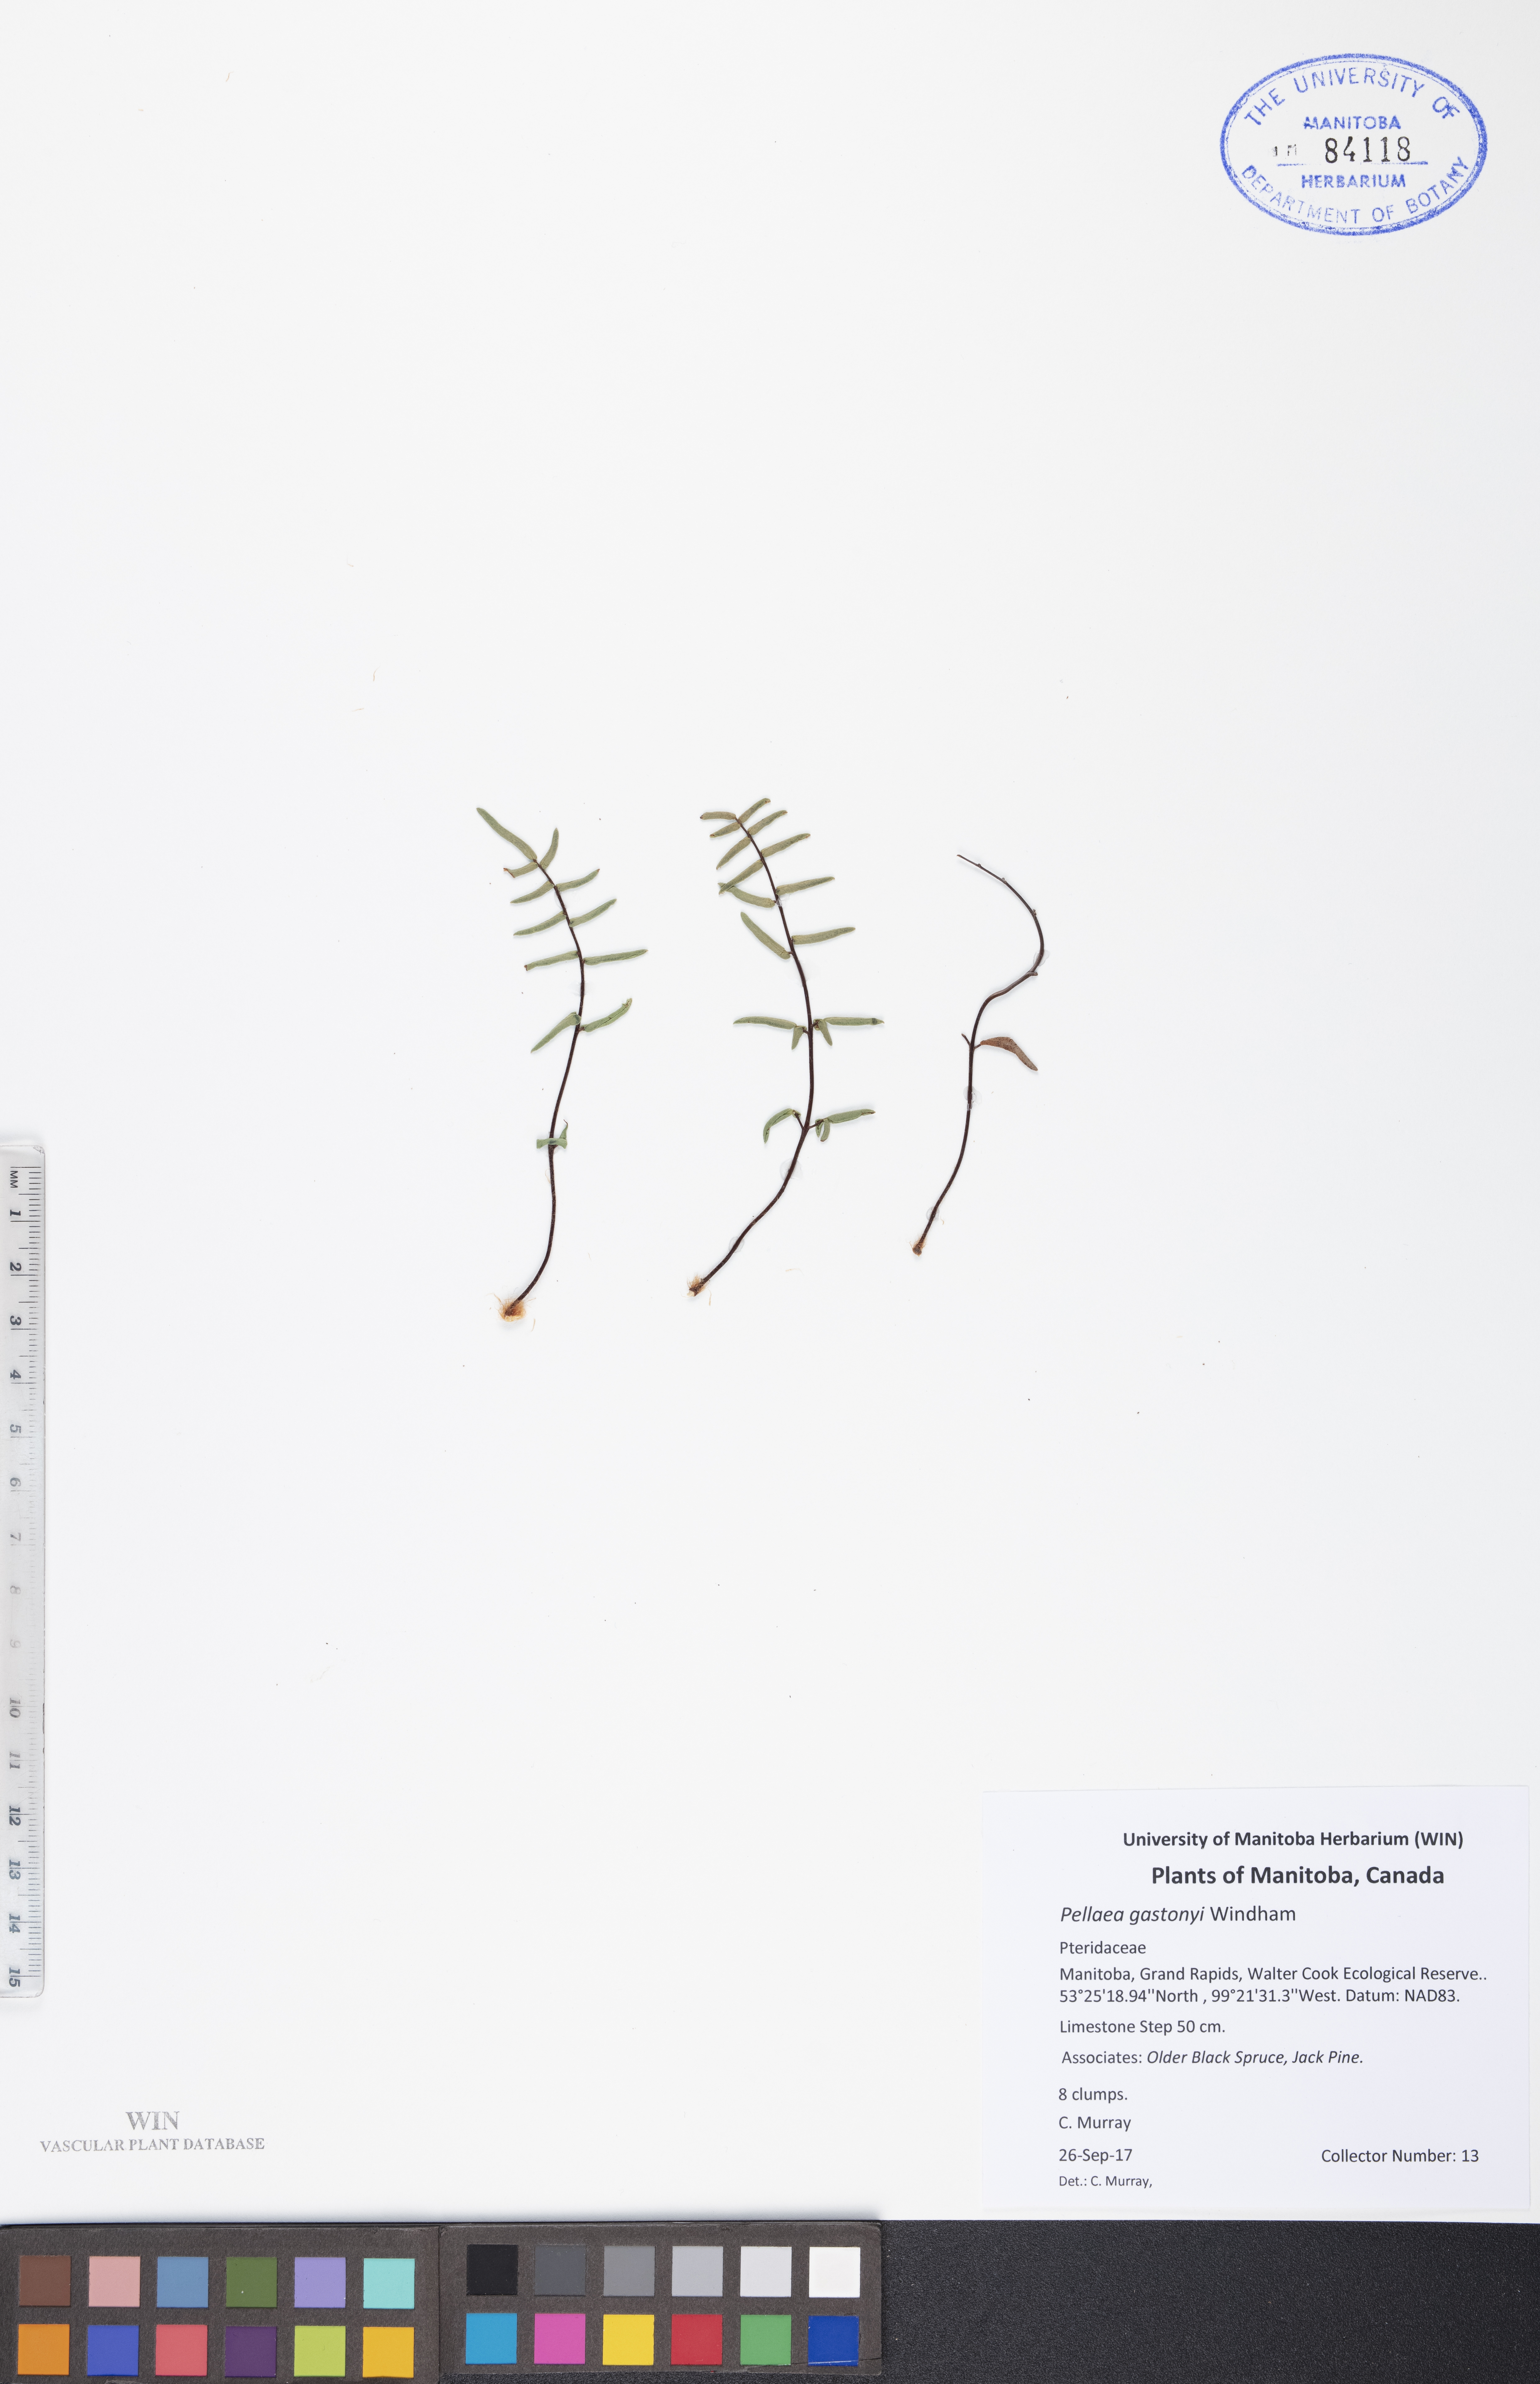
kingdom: Plantae
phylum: Tracheophyta
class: Polypodiopsida
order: Polypodiales
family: Pteridaceae
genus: Pellaea
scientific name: Pellaea gastonyi
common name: Gastony's cliffbrake
